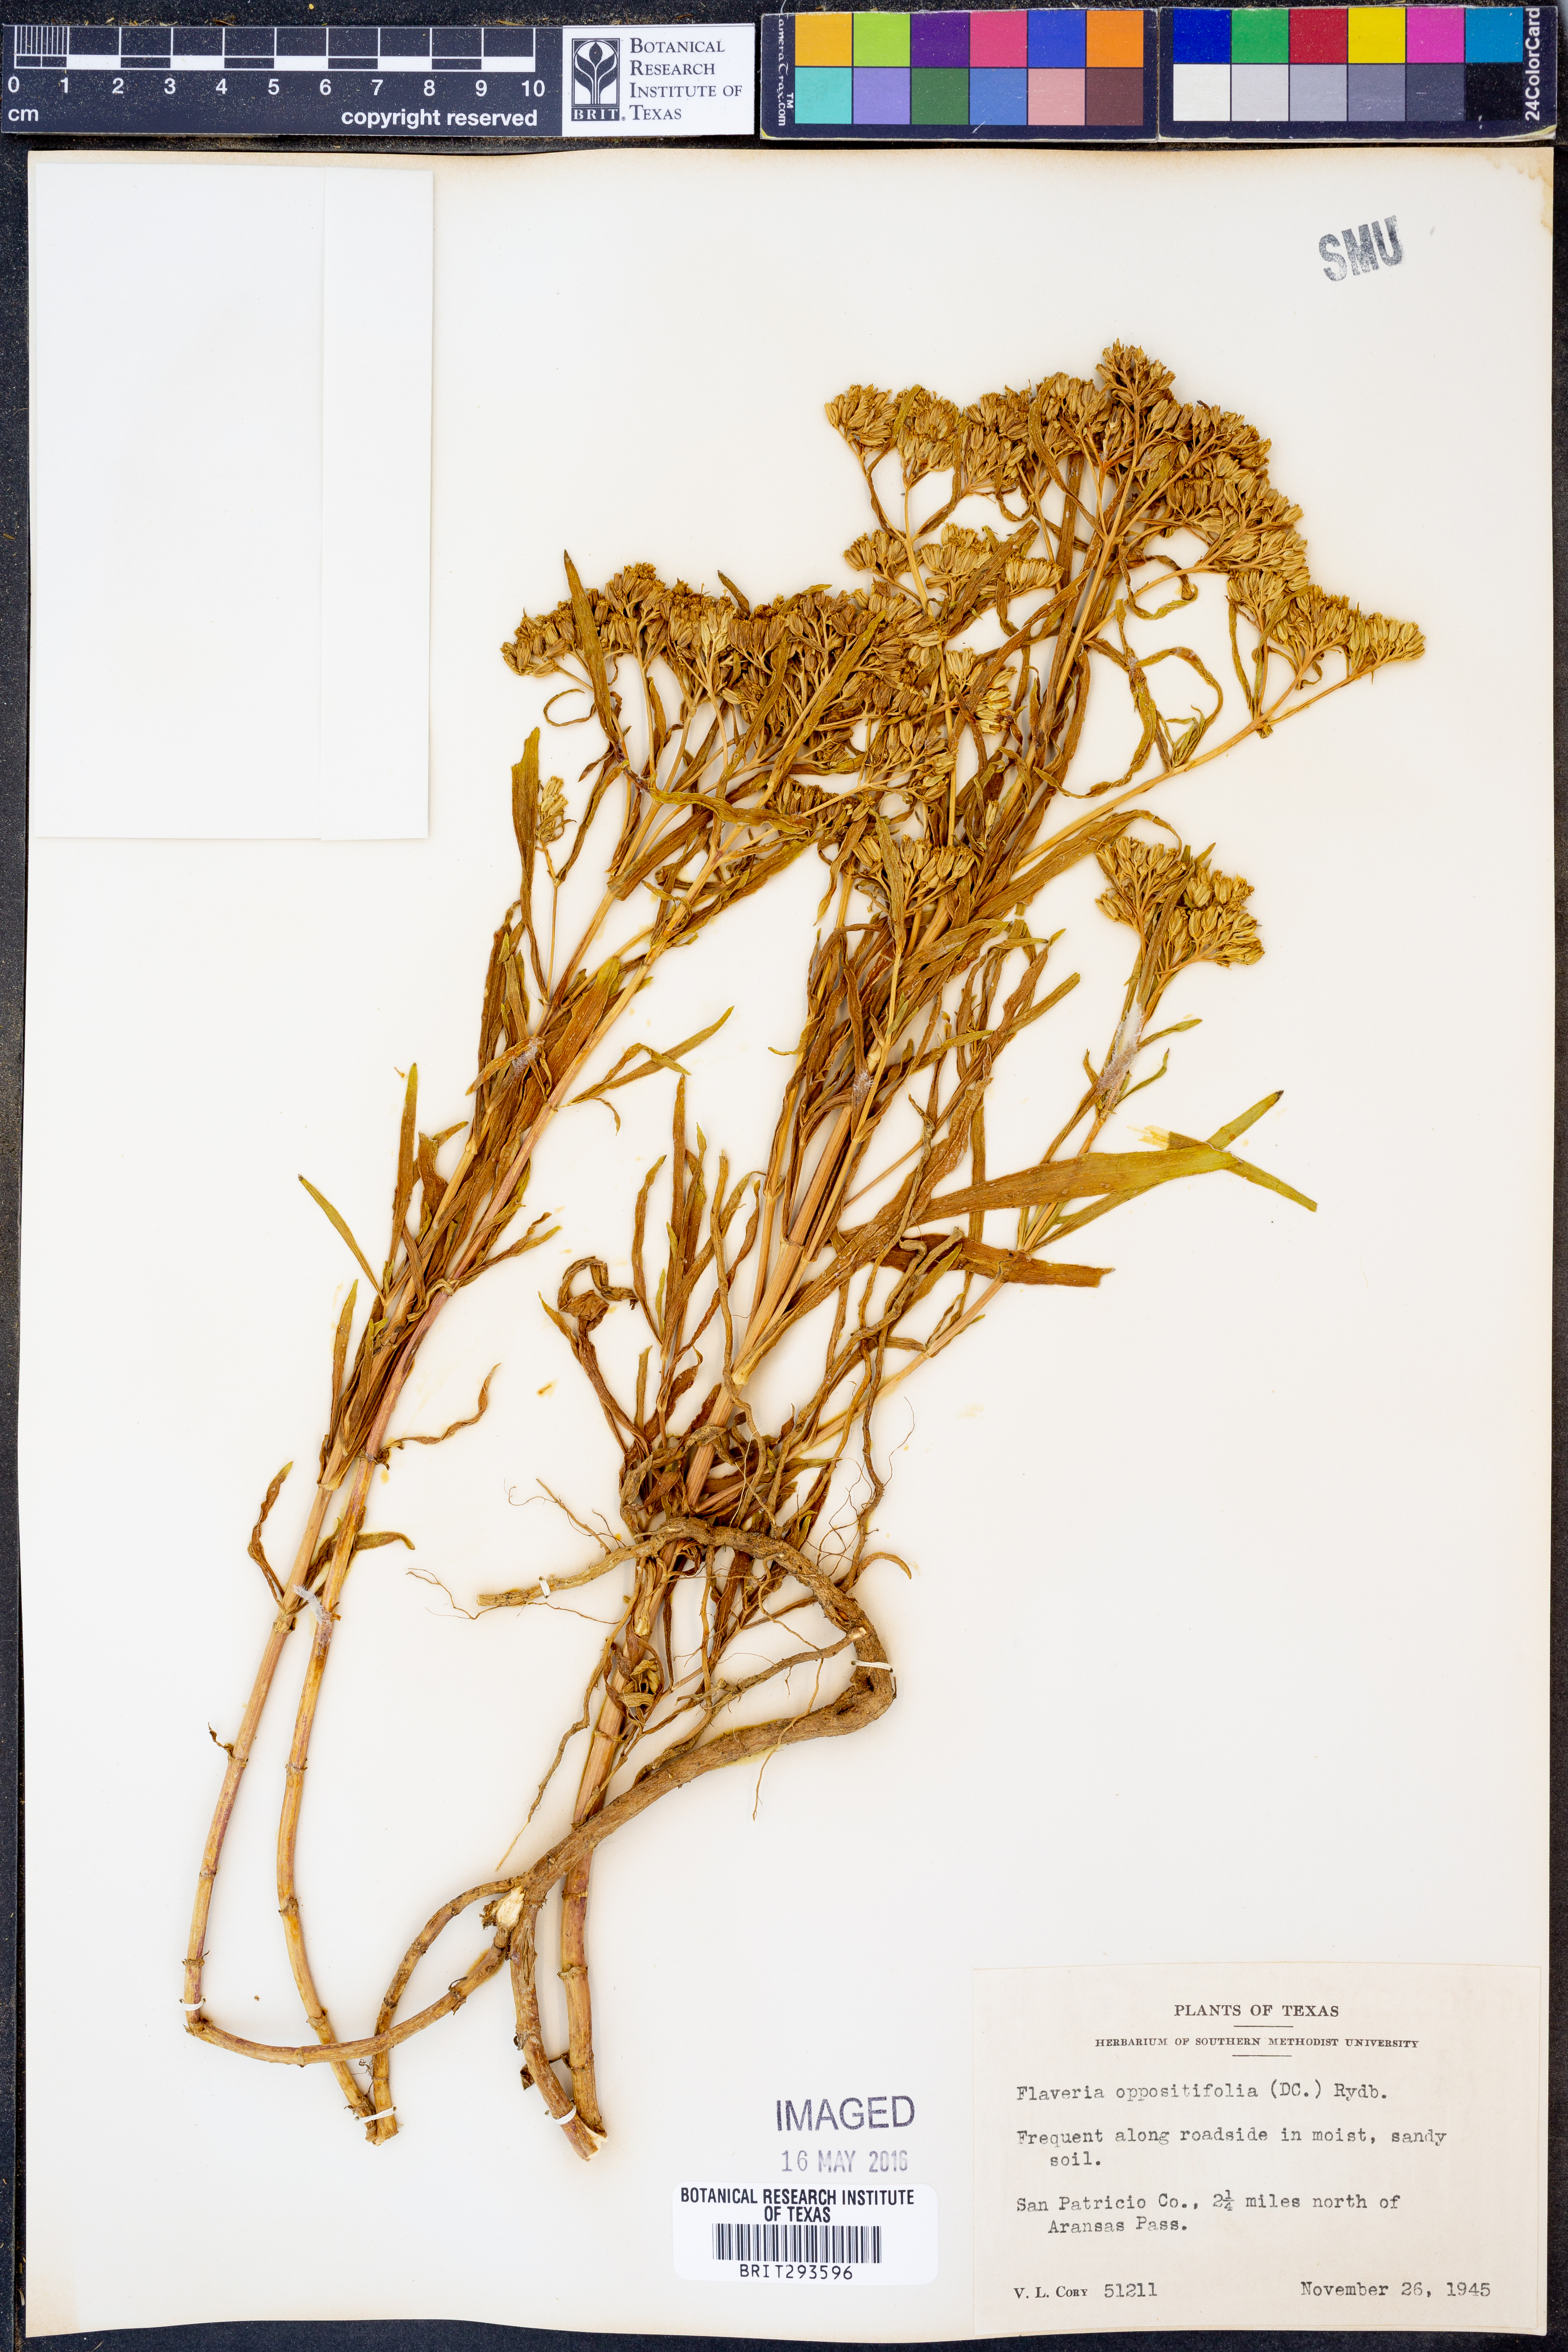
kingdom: Plantae
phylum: Tracheophyta
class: Magnoliopsida
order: Asterales
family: Asteraceae
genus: Flaveria
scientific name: Flaveria oppositifolia
